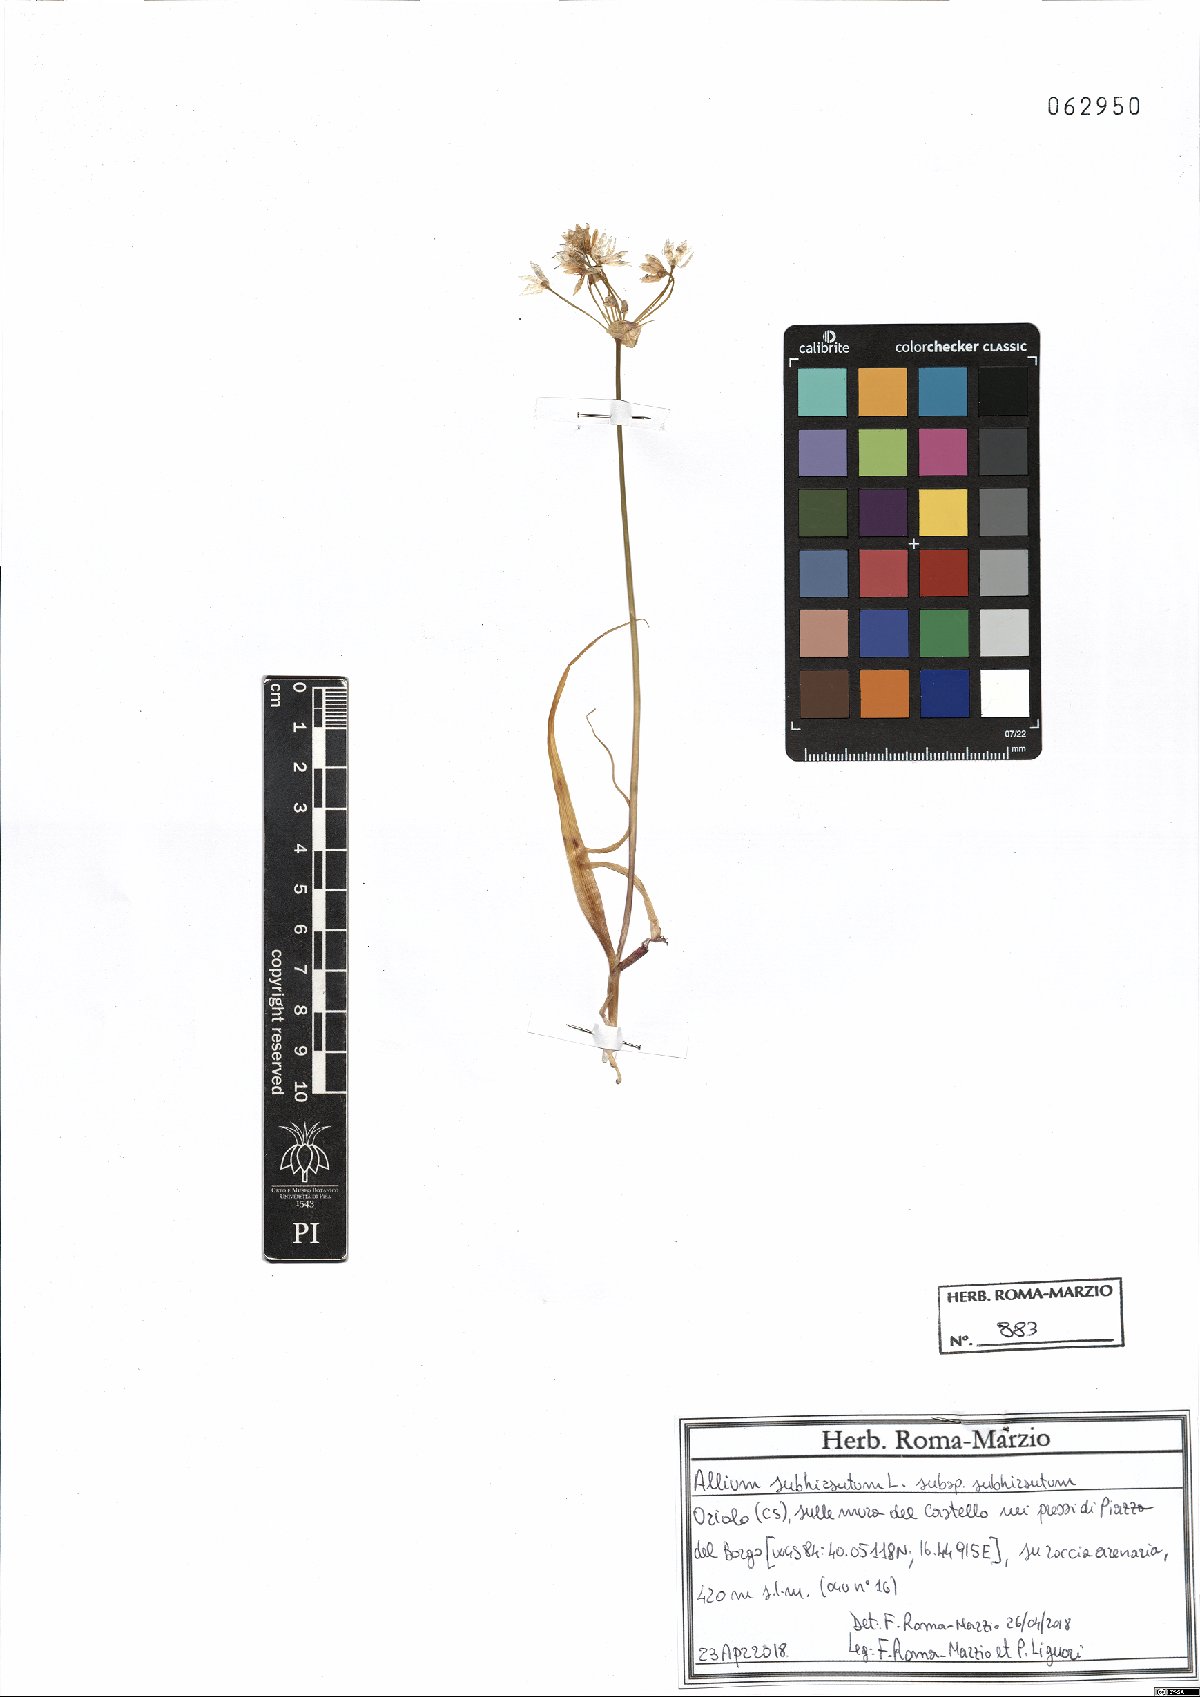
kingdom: Plantae
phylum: Tracheophyta
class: Liliopsida
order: Asparagales
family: Amaryllidaceae
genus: Allium
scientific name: Allium subhirsutum
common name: Hairy garlic
